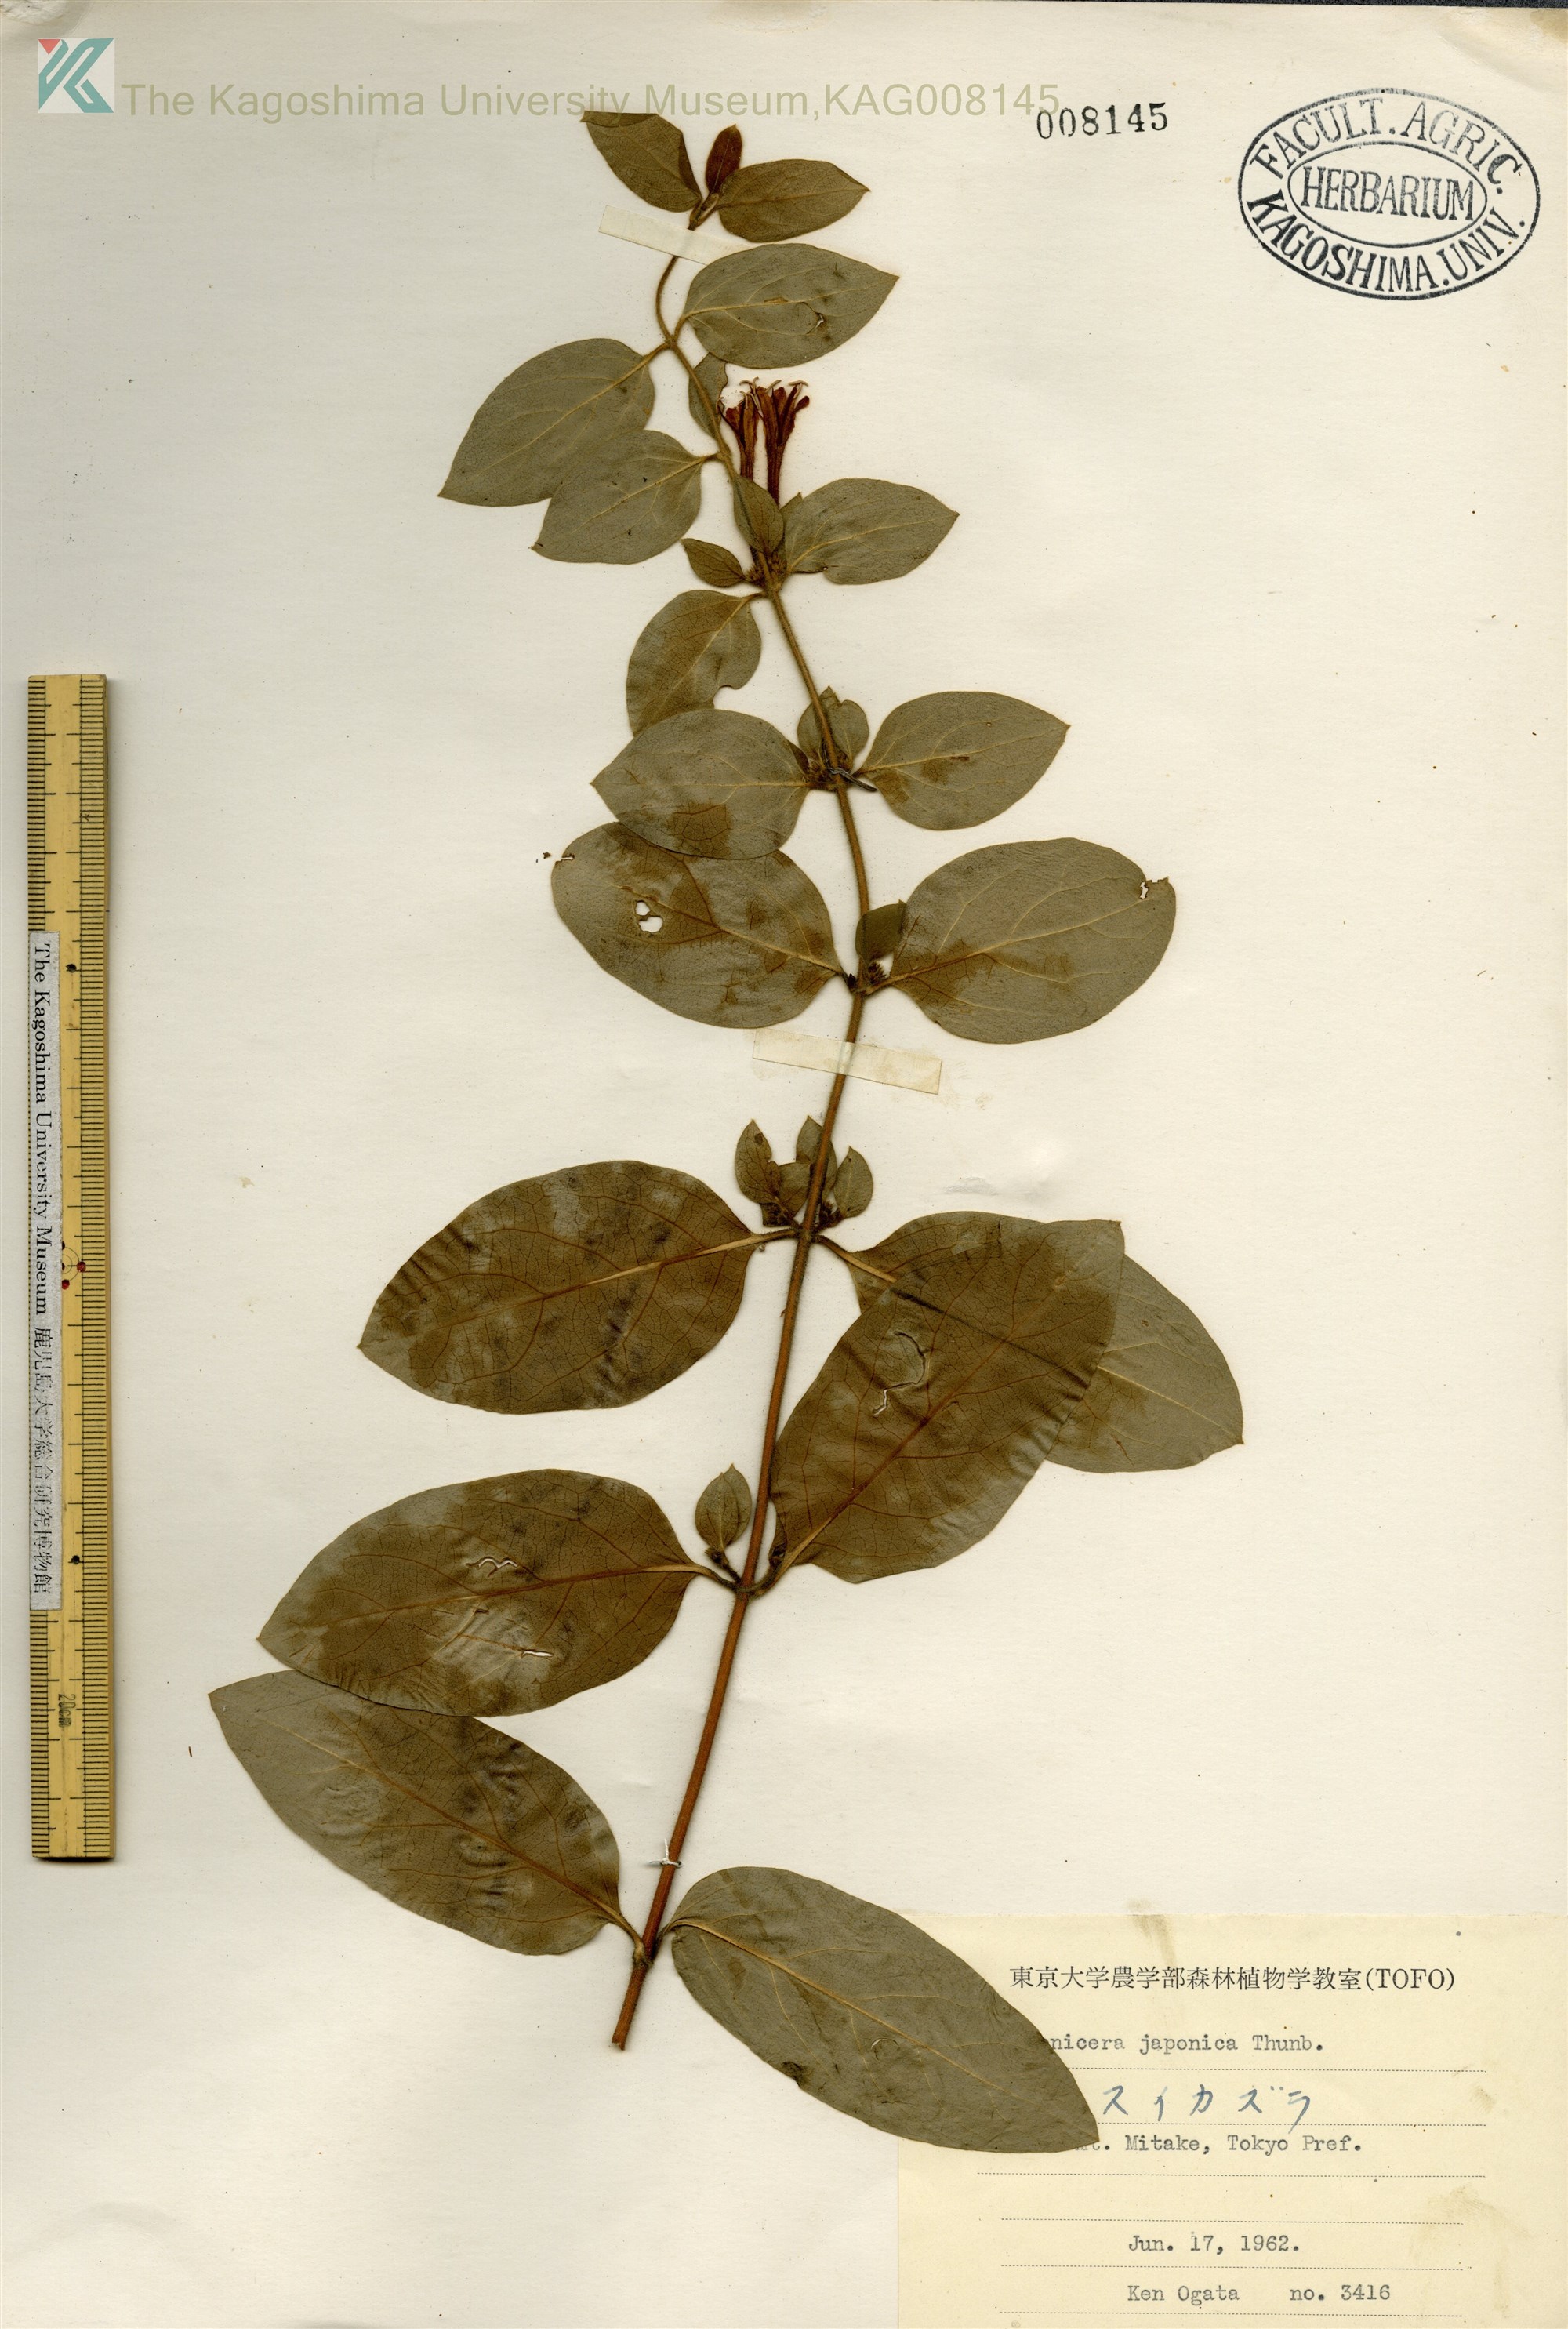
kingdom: Plantae
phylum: Tracheophyta
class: Magnoliopsida
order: Dipsacales
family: Caprifoliaceae
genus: Lonicera
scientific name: Lonicera japonica
